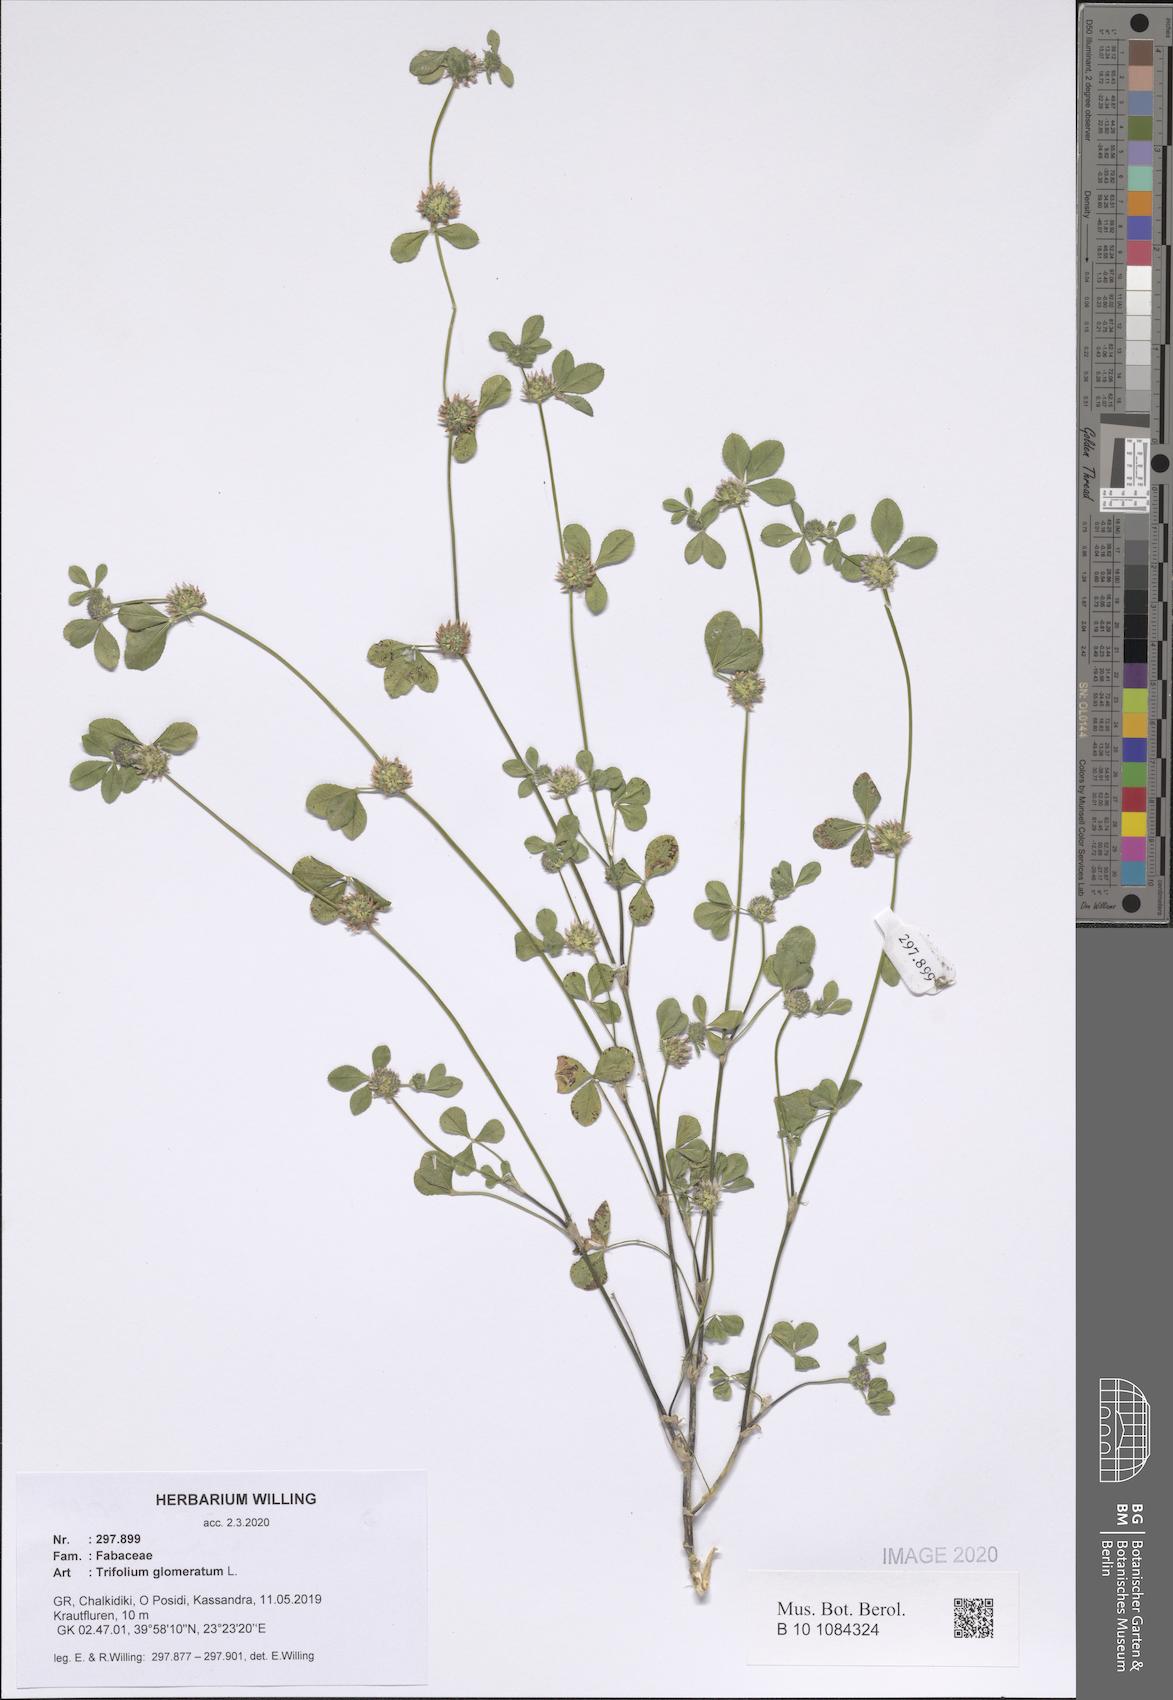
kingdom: Plantae
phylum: Tracheophyta
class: Magnoliopsida
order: Fabales
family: Fabaceae
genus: Trifolium
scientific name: Trifolium glomeratum
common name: Clustered clover
